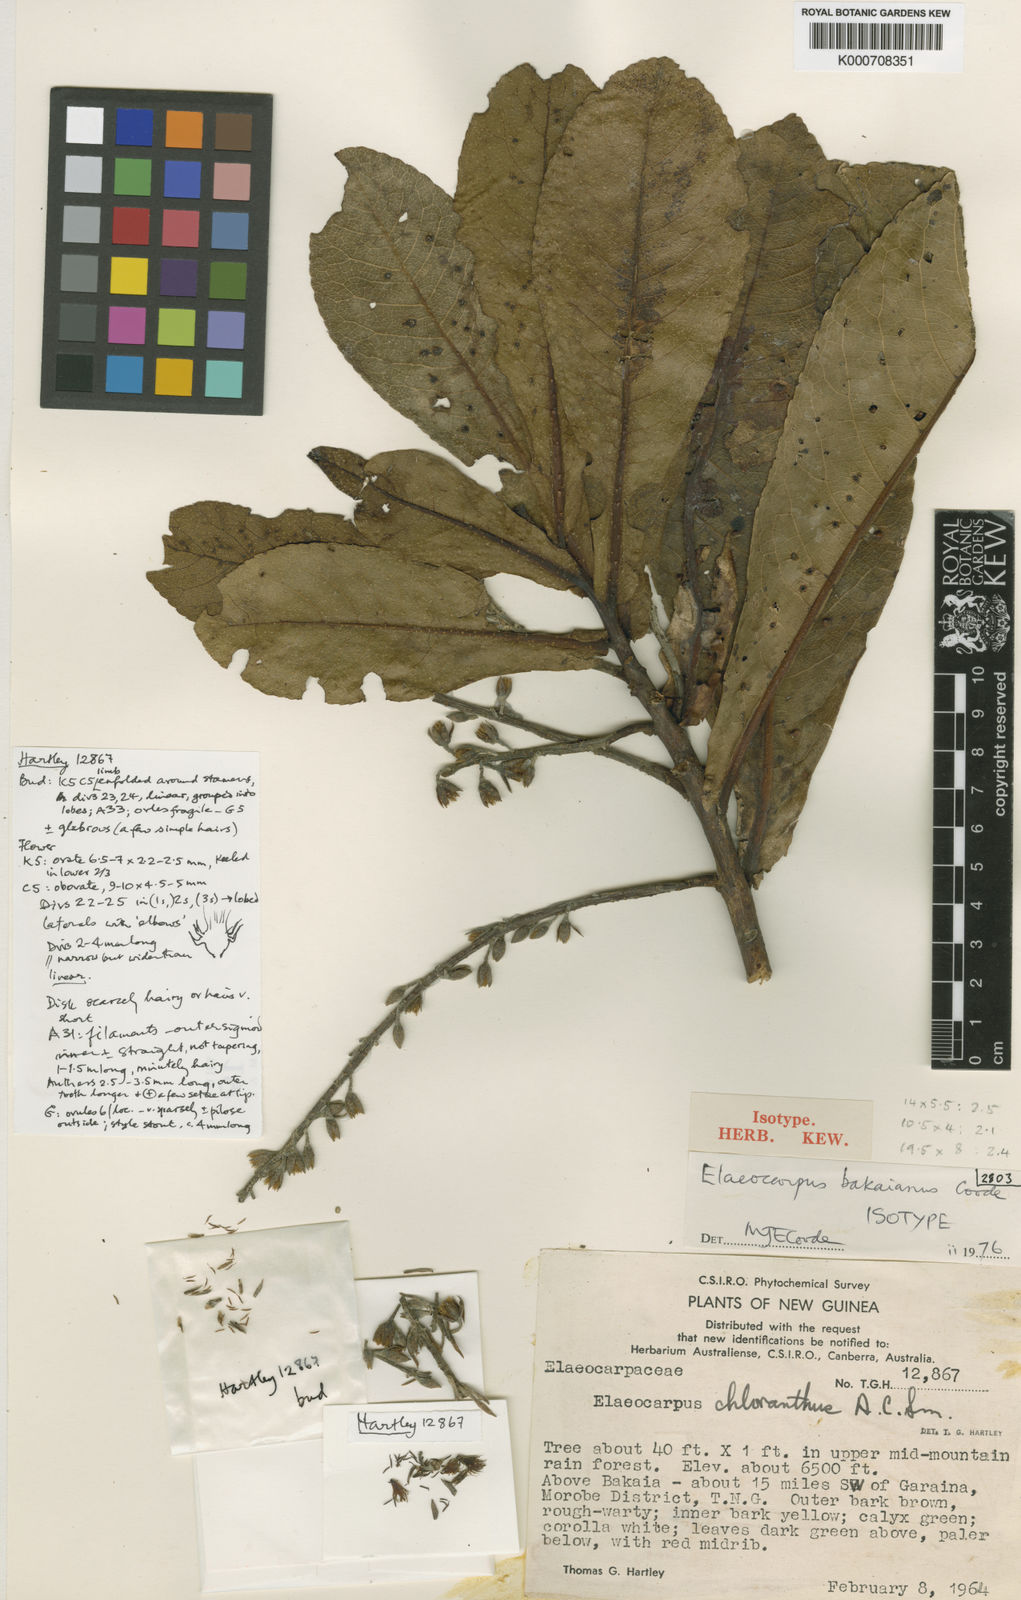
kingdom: Plantae
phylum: Tracheophyta
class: Magnoliopsida
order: Oxalidales
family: Elaeocarpaceae
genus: Elaeocarpus
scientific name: Elaeocarpus bakaianus
